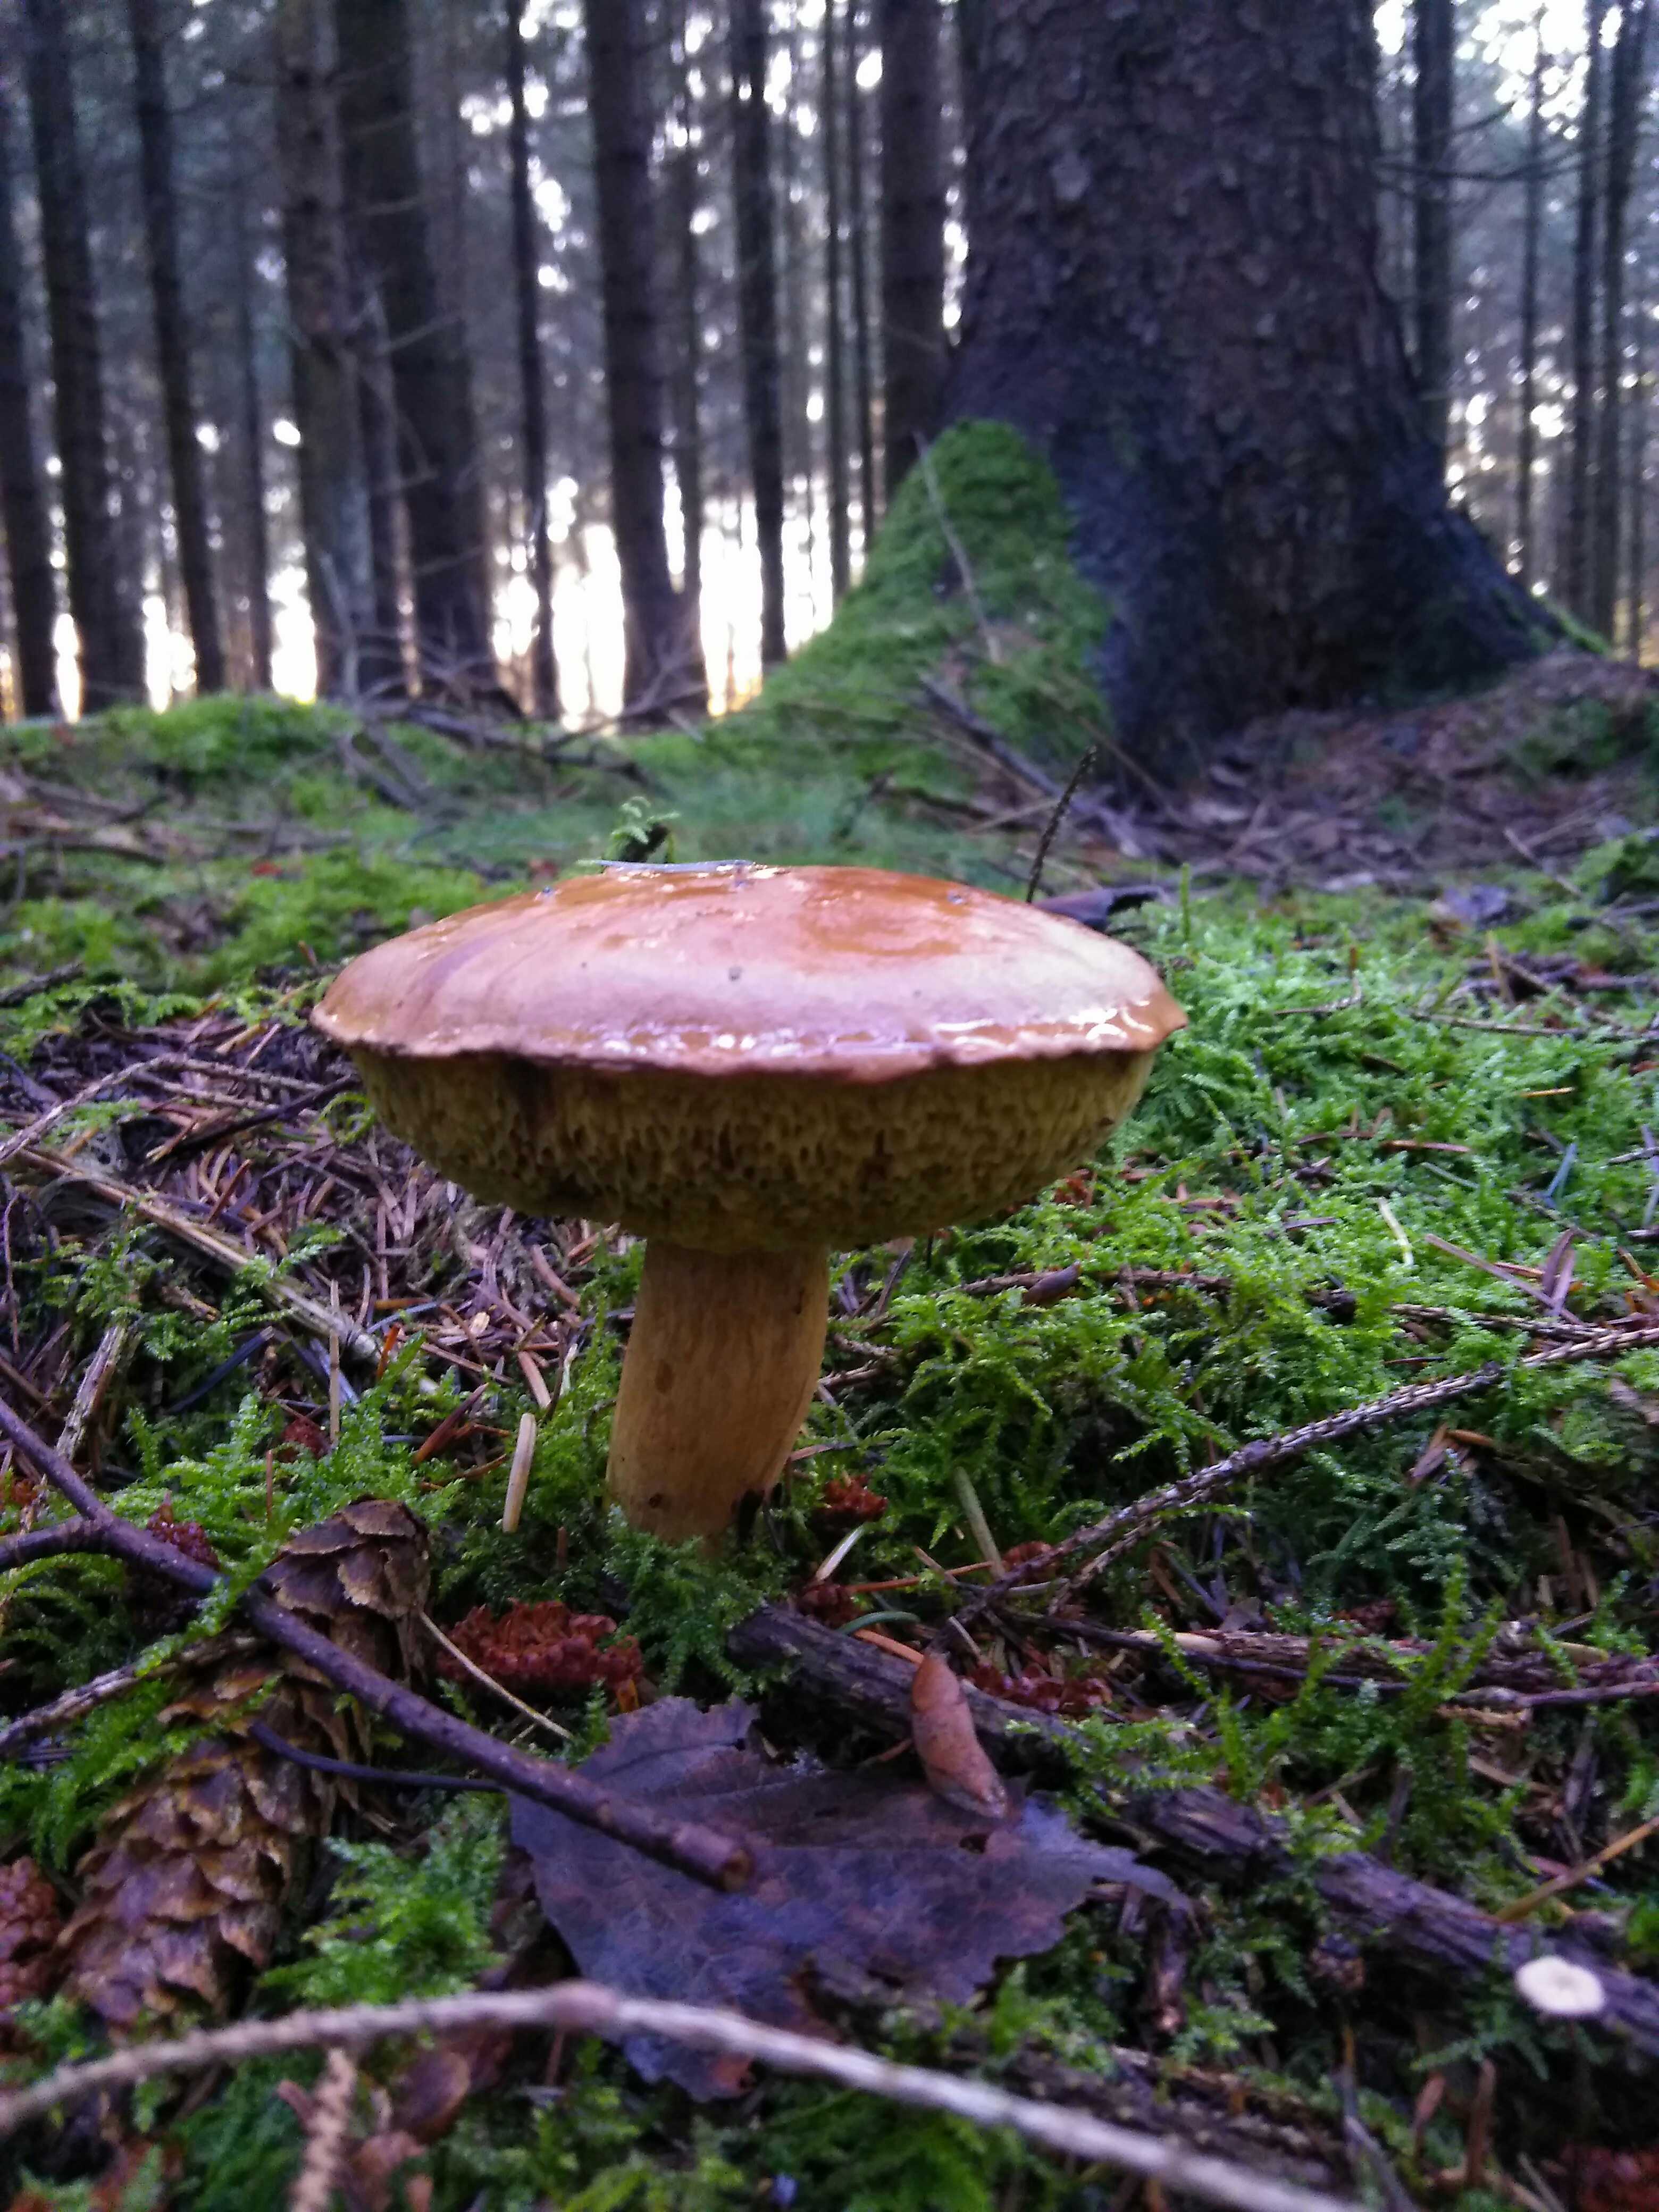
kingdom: Fungi
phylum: Basidiomycota
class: Agaricomycetes
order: Boletales
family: Boletaceae
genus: Imleria
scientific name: Imleria badia
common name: brunstokket rørhat
